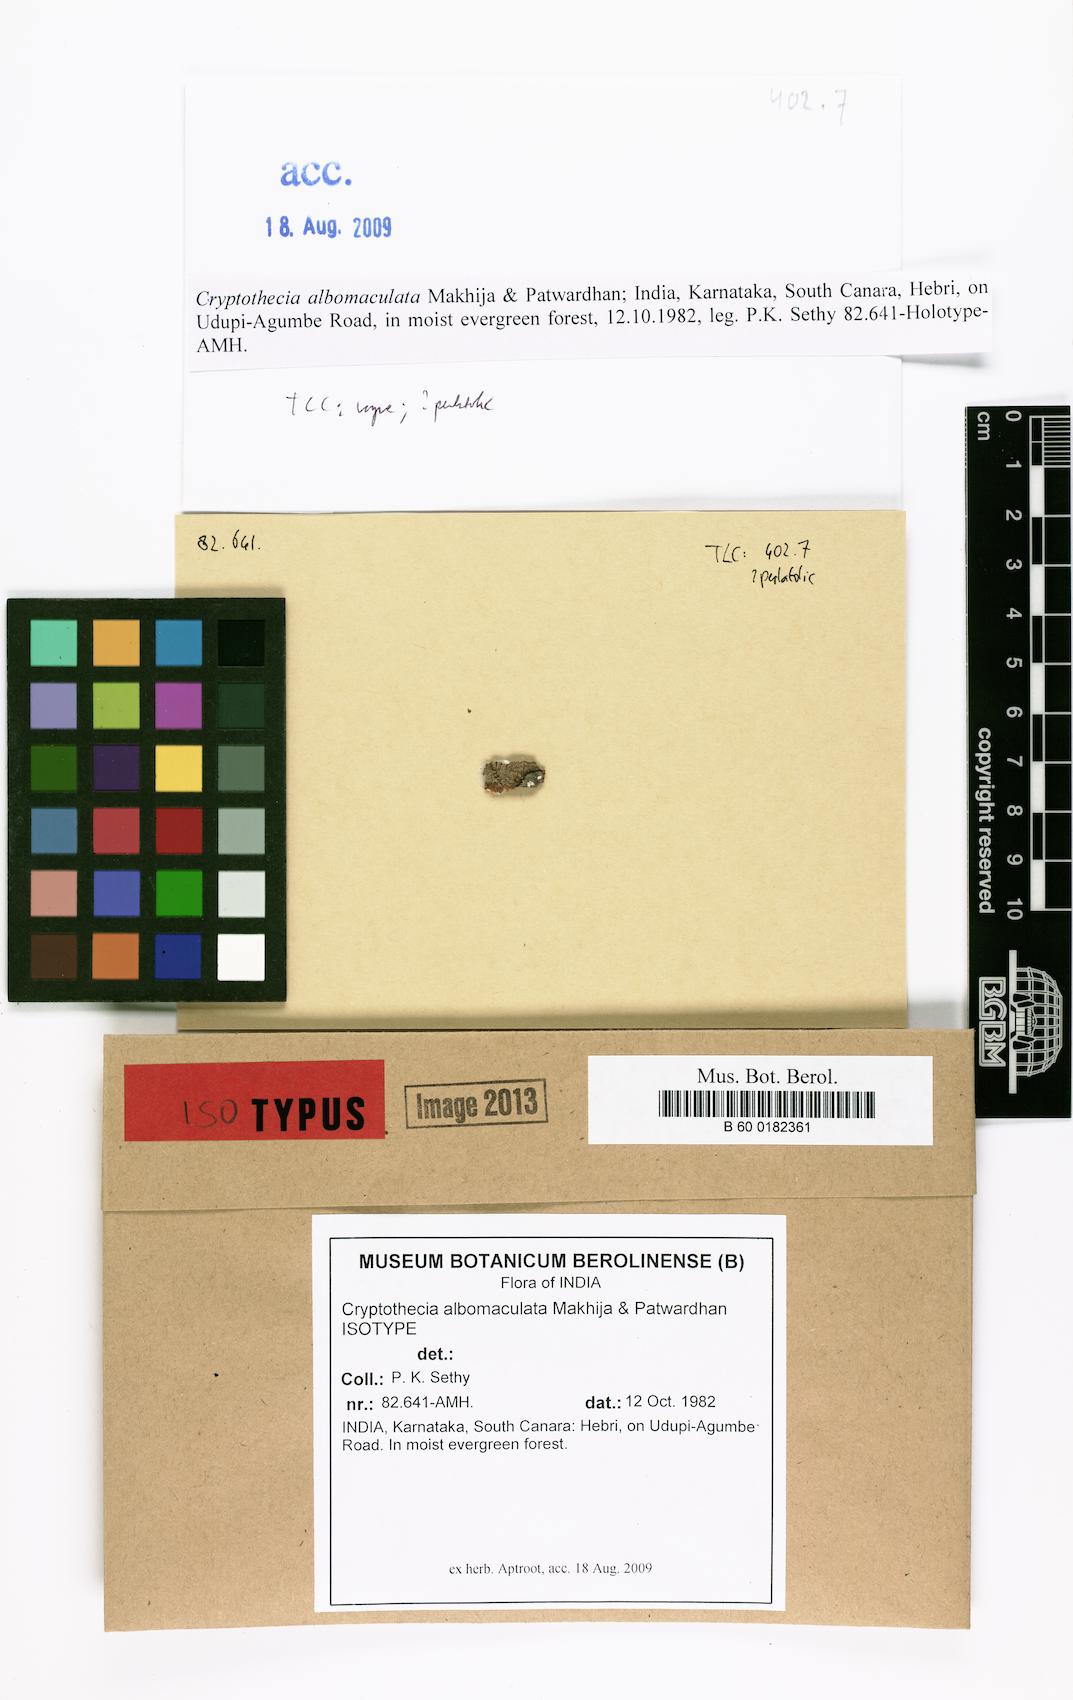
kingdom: Fungi
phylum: Ascomycota
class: Arthoniomycetes
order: Arthoniales
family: Arthoniaceae
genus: Cryptothecia
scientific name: Cryptothecia
